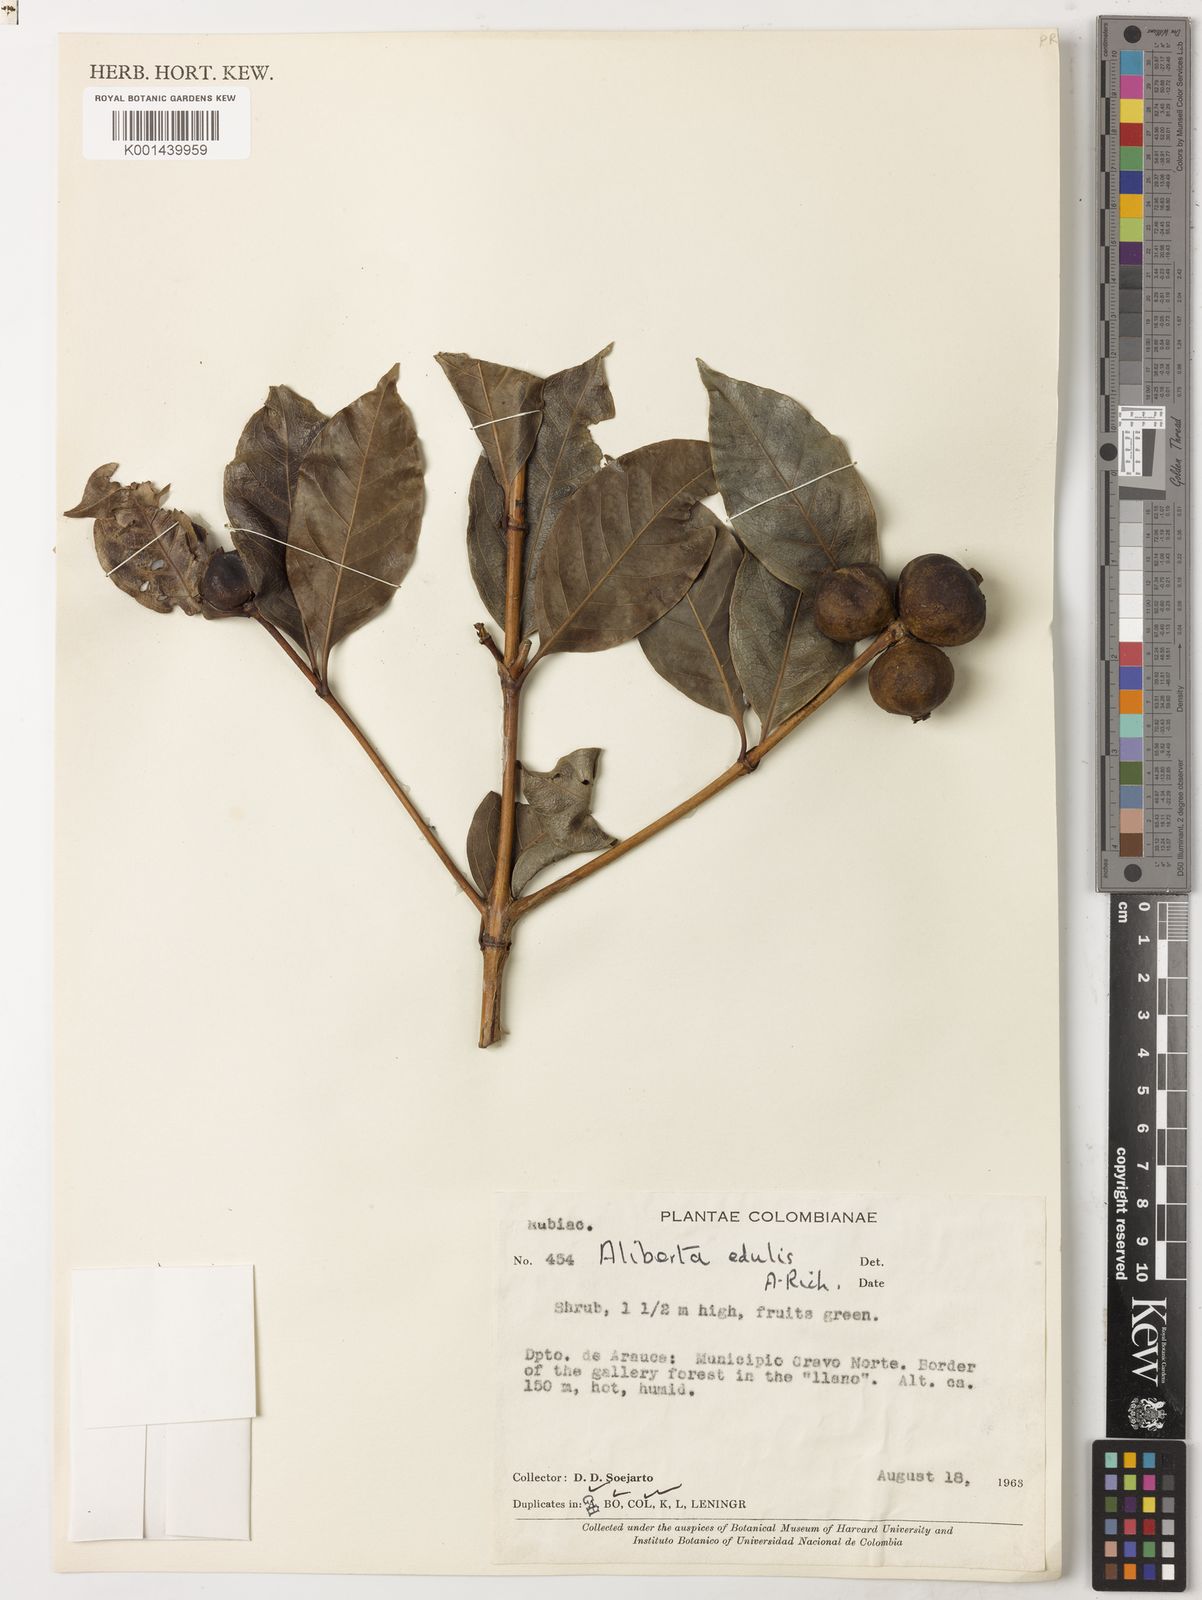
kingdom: Plantae
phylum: Tracheophyta
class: Magnoliopsida
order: Gentianales
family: Rubiaceae
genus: Alibertia
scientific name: Alibertia edulis
